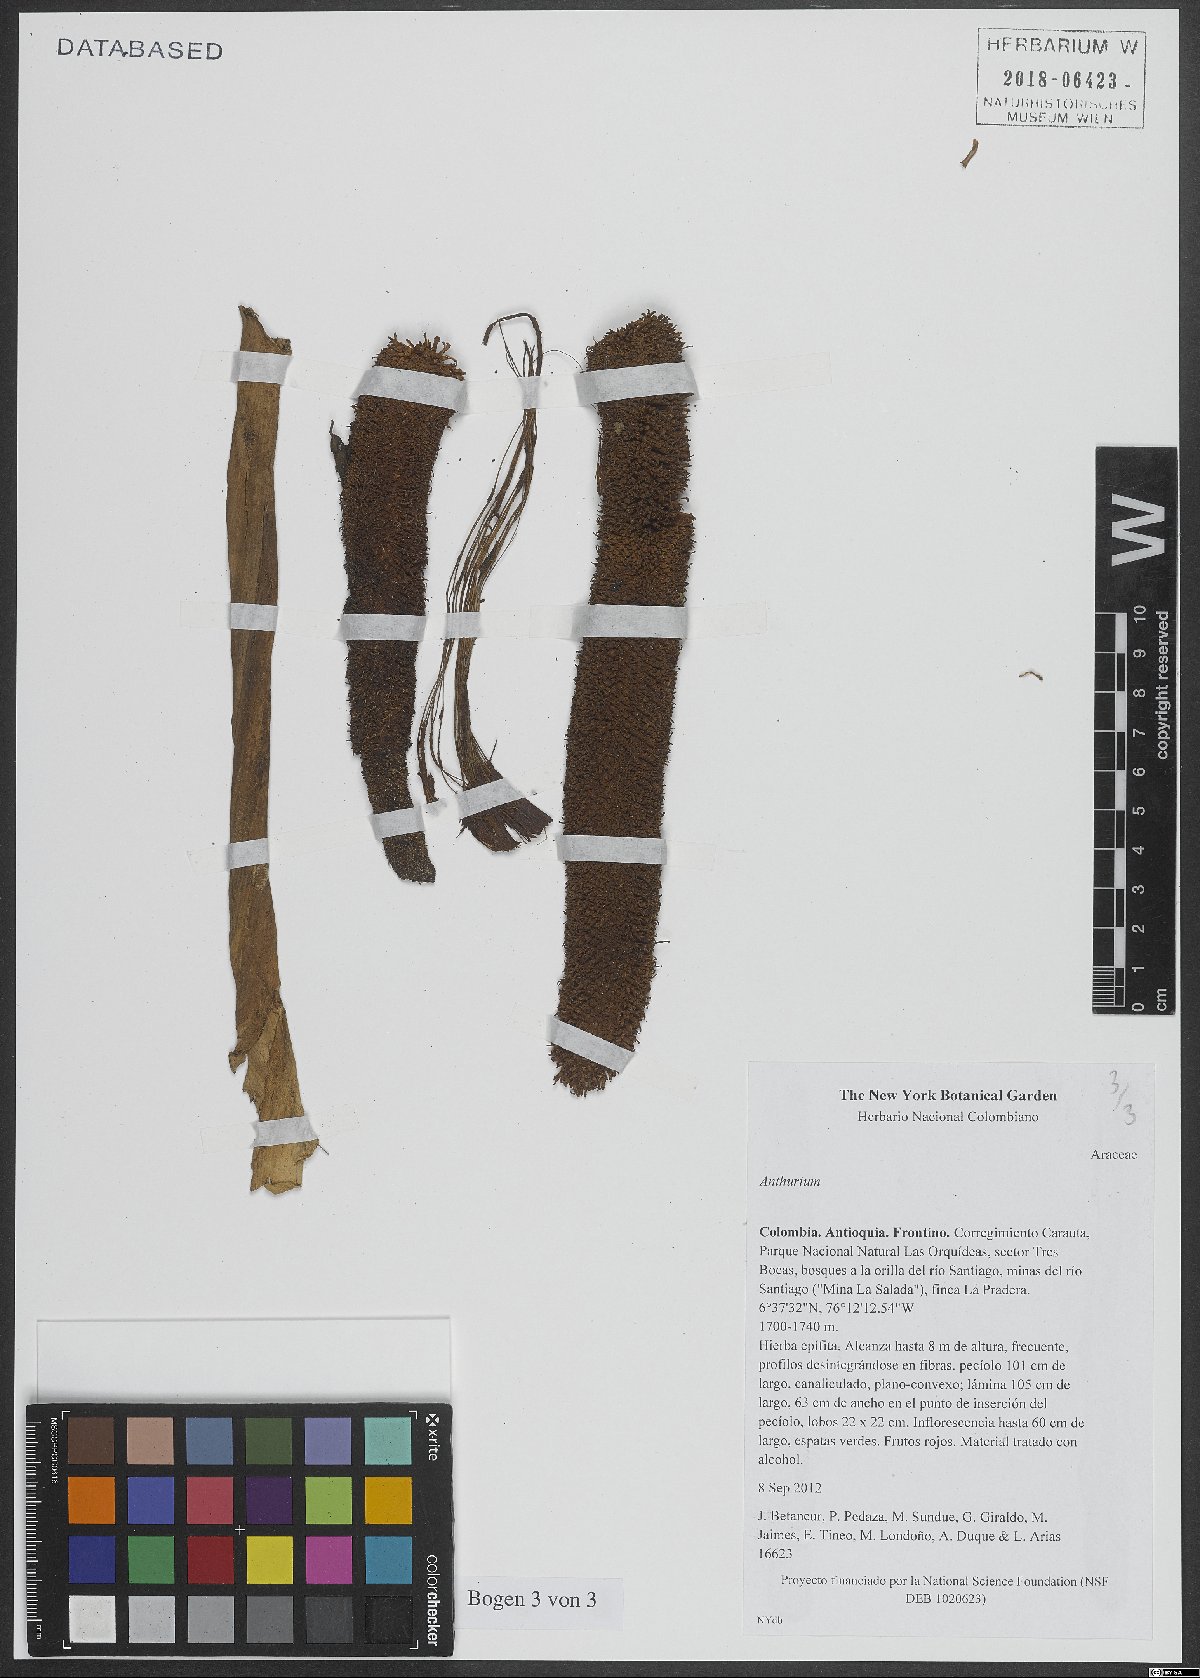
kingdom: Plantae
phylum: Tracheophyta
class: Liliopsida
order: Alismatales
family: Araceae
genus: Anthurium
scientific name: Anthurium
